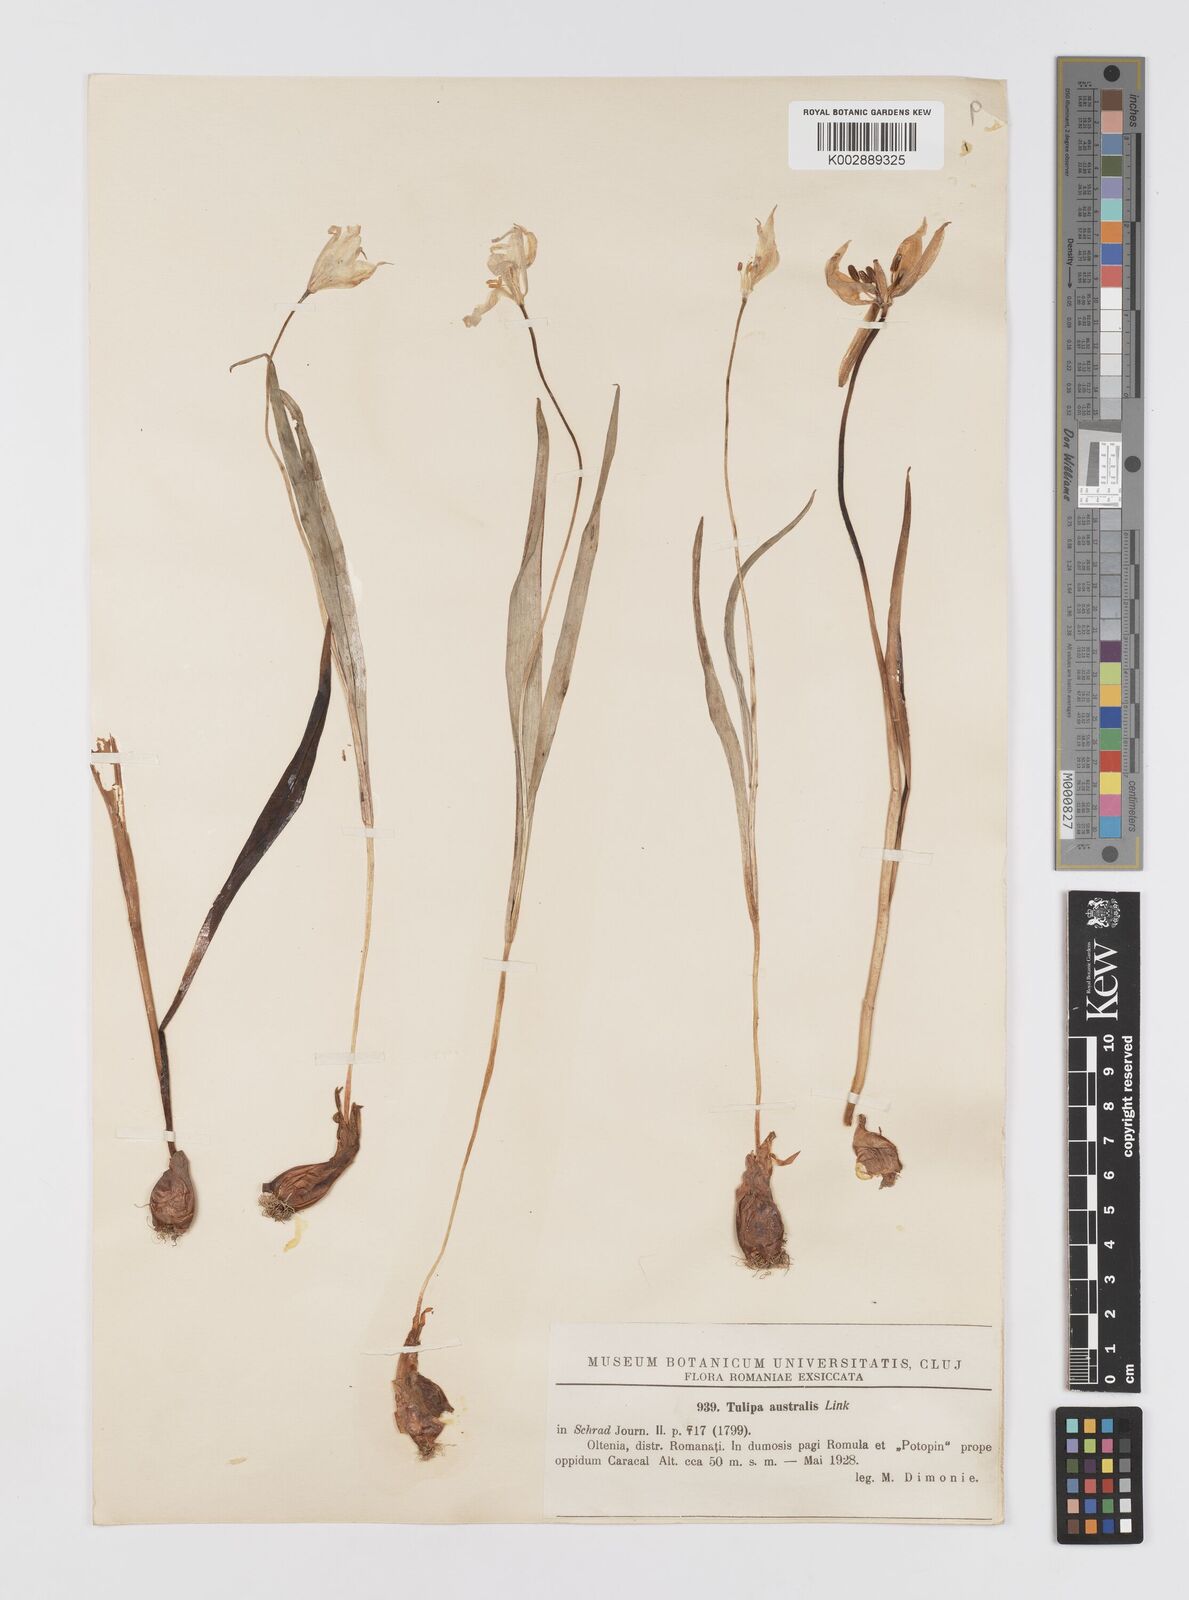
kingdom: Plantae
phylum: Tracheophyta
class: Liliopsida
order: Liliales
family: Liliaceae
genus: Tulipa
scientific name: Tulipa sylvestris
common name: Wild tulip
